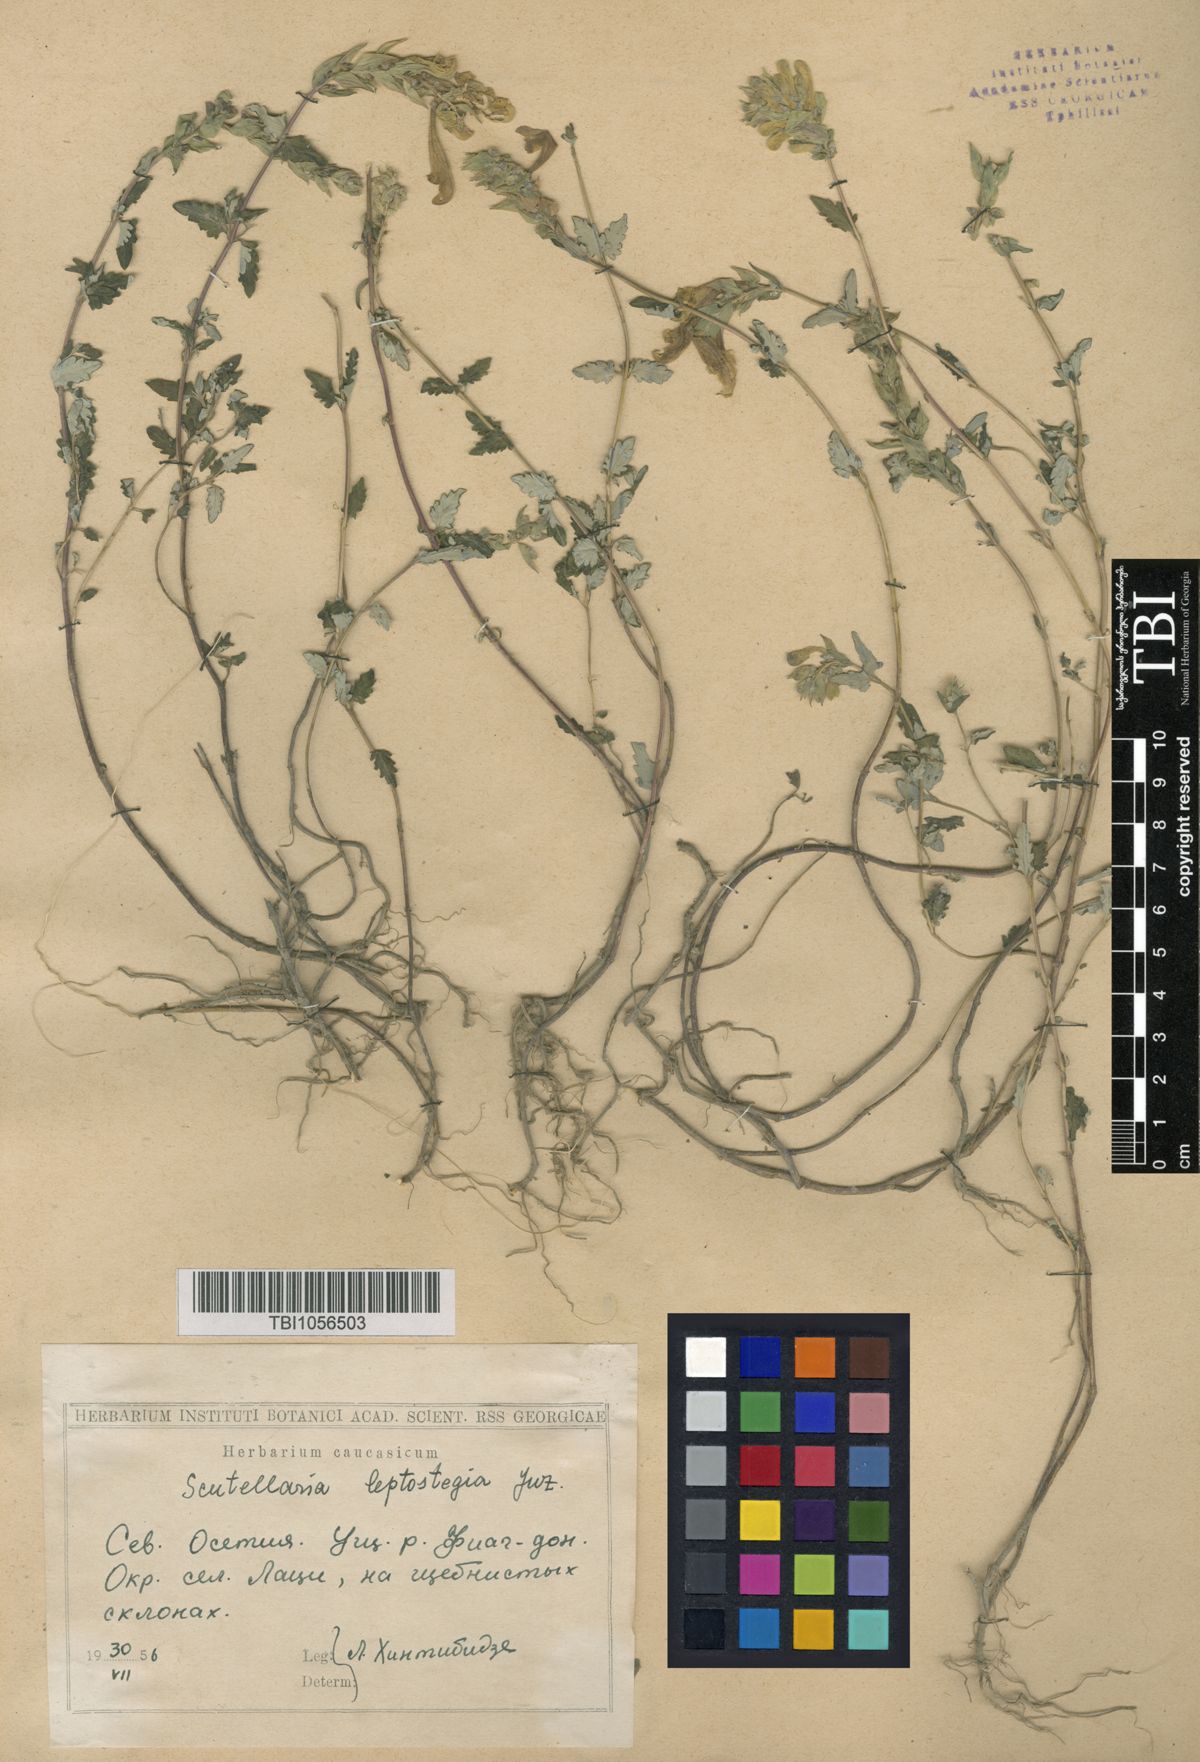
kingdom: Plantae
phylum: Tracheophyta
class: Magnoliopsida
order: Lamiales
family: Lamiaceae
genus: Scutellaria
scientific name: Scutellaria leptostegia
